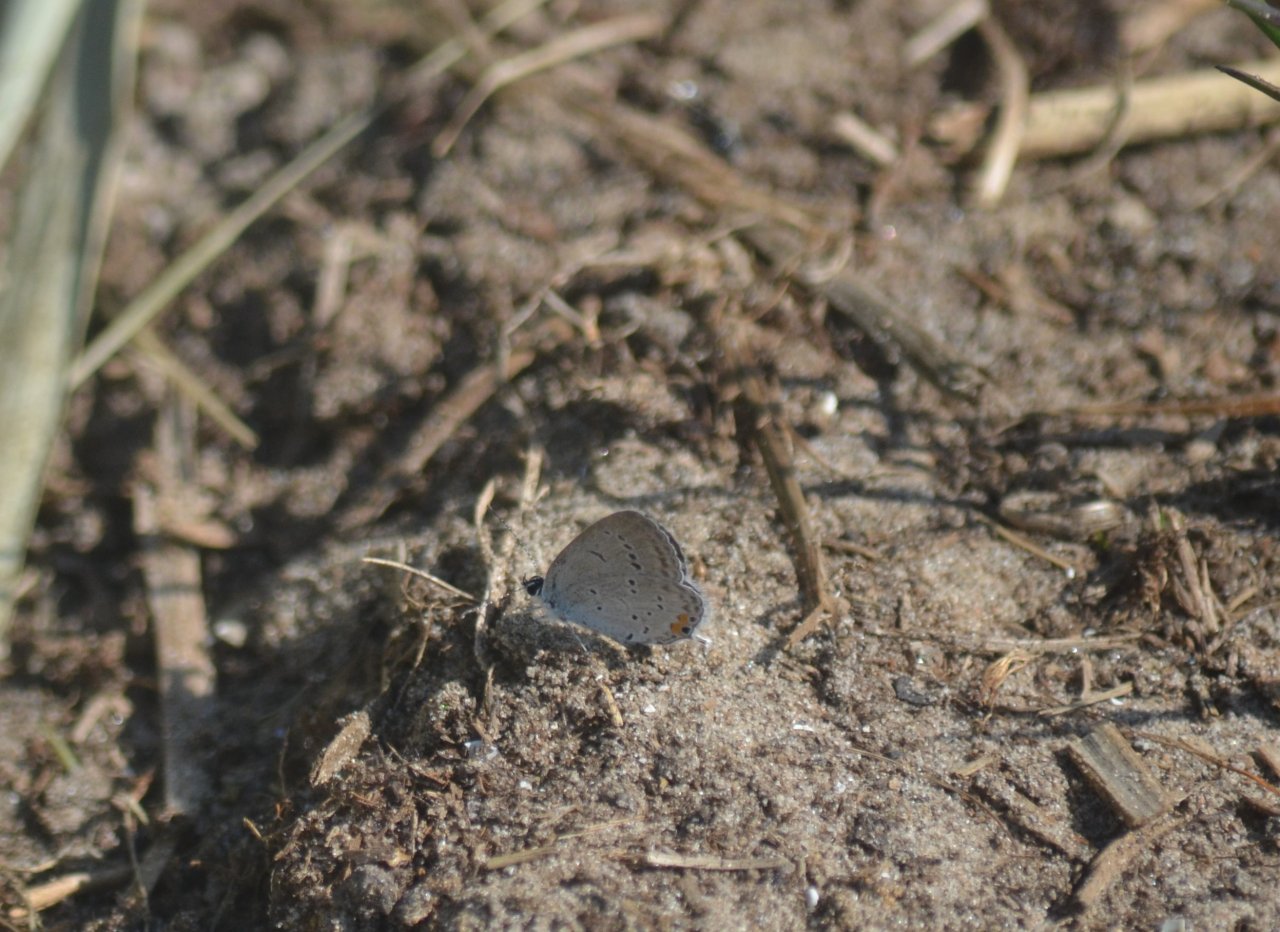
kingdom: Animalia
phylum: Arthropoda
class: Insecta
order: Lepidoptera
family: Lycaenidae
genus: Elkalyce
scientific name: Elkalyce comyntas
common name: Eastern Tailed-Blue
